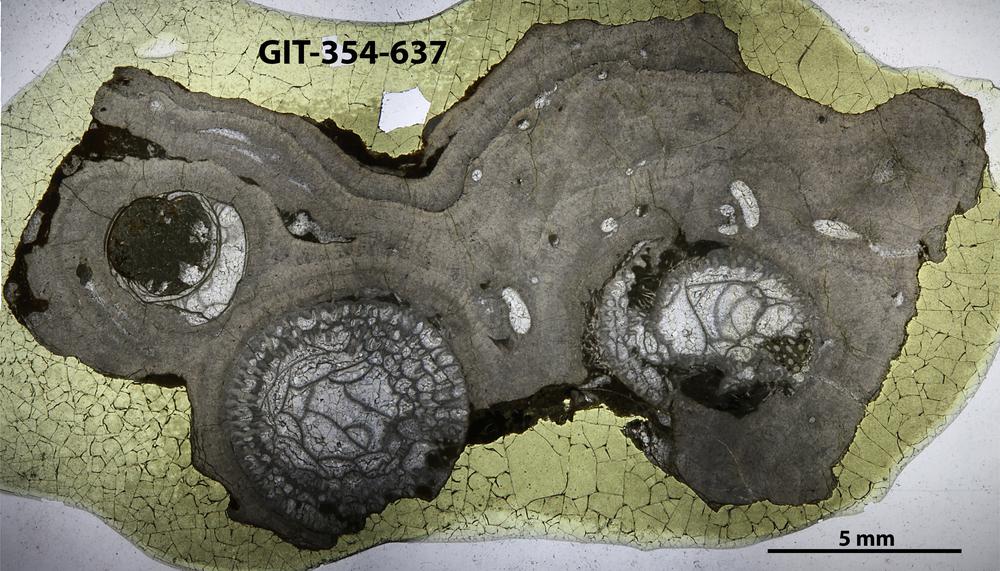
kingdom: Animalia
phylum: Porifera
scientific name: Porifera
